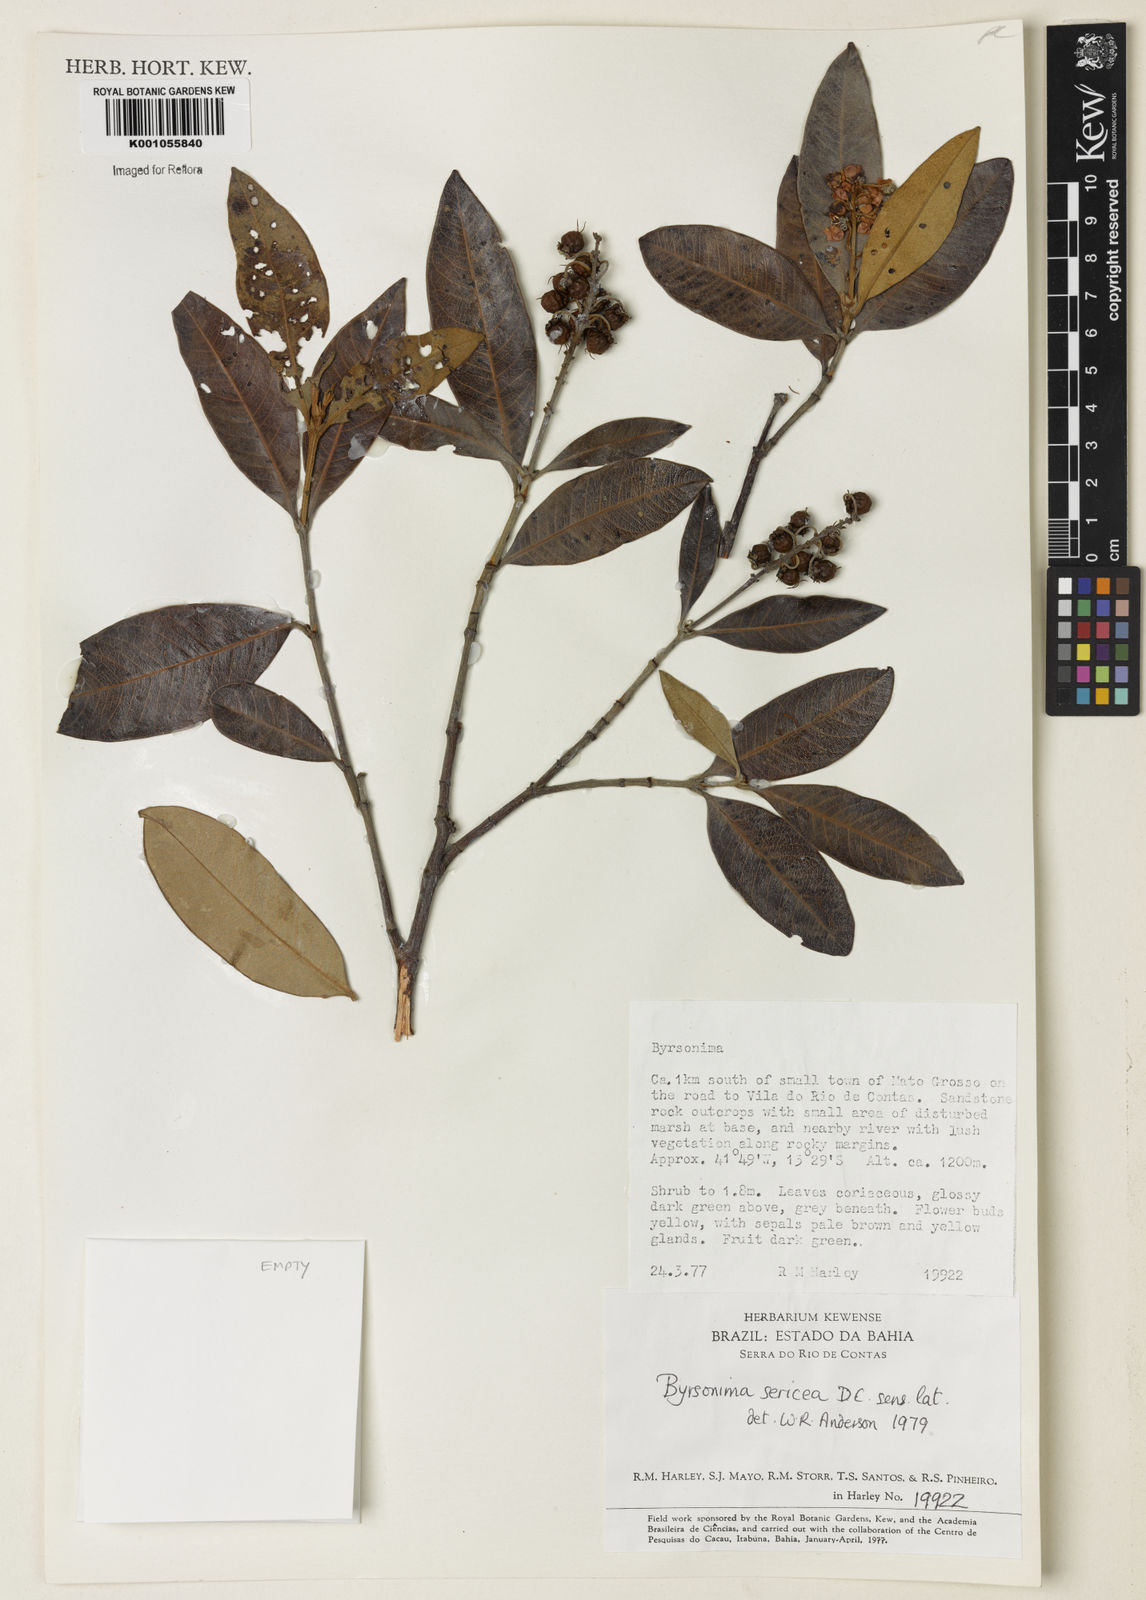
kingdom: Plantae
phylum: Tracheophyta
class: Magnoliopsida
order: Malpighiales
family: Malpighiaceae
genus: Byrsonima
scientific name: Byrsonima sericea
